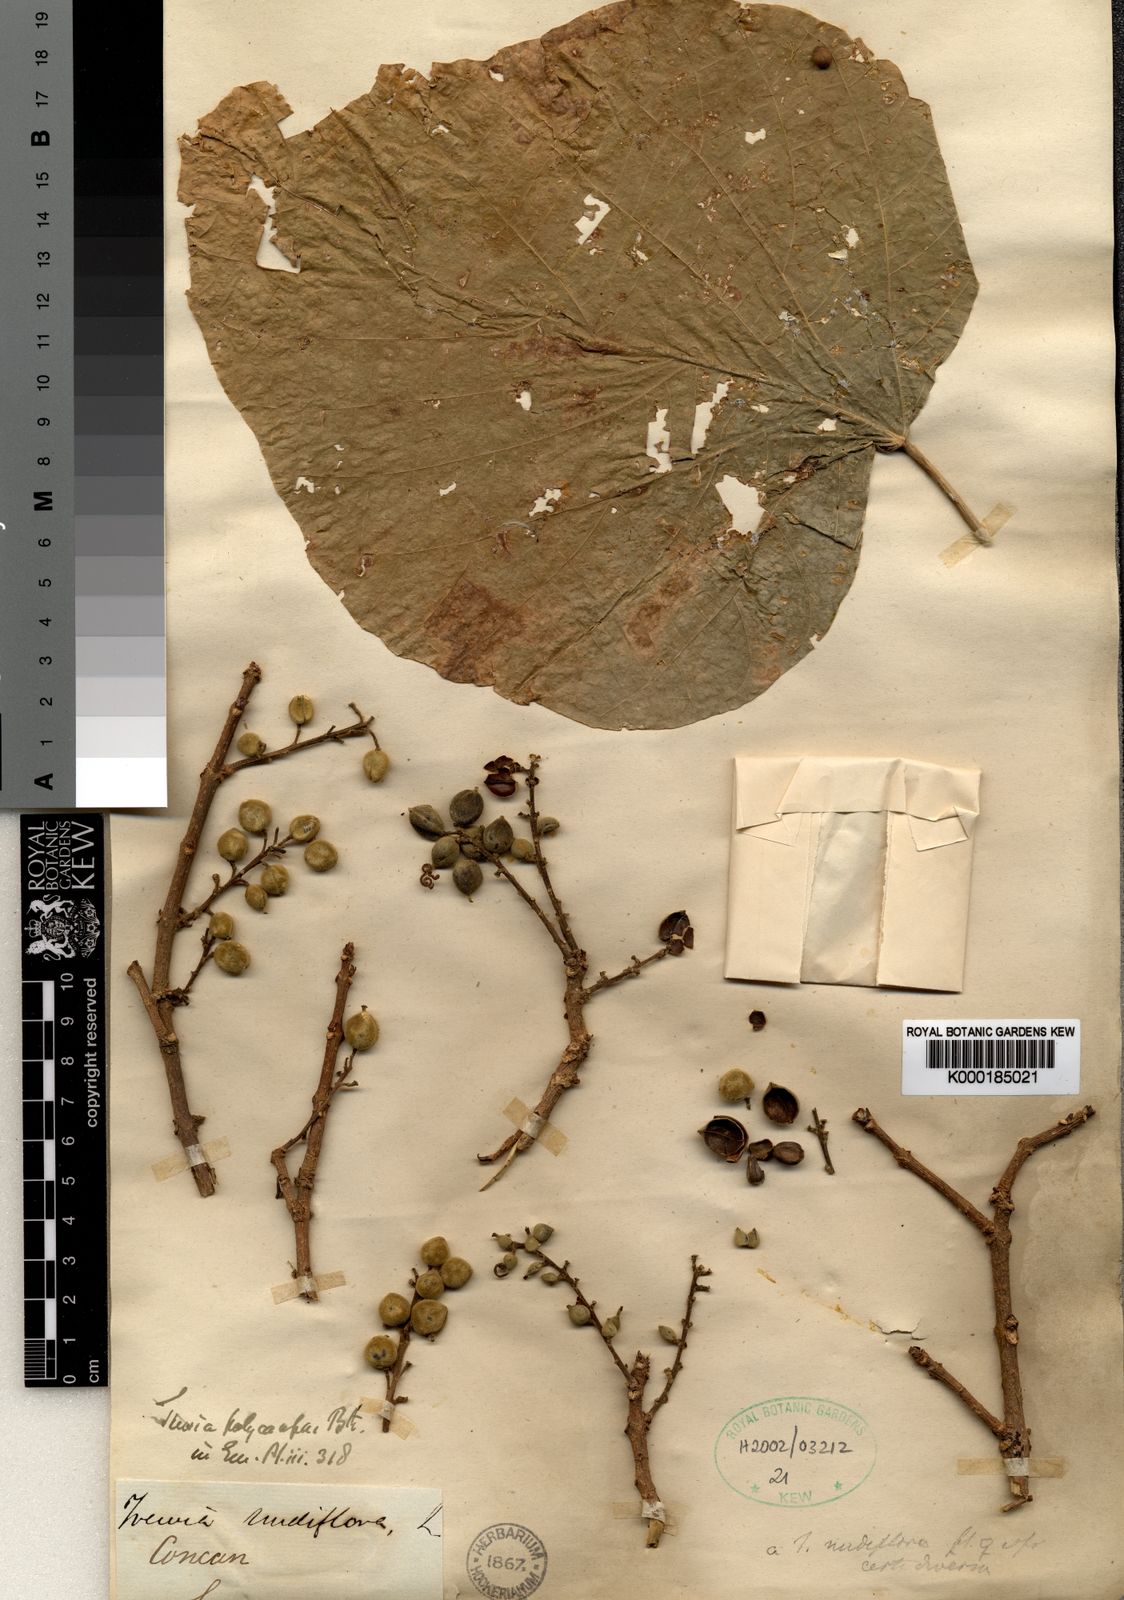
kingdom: Plantae
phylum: Tracheophyta
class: Magnoliopsida
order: Malpighiales
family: Euphorbiaceae
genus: Mallotus
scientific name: Mallotus polycarpus
